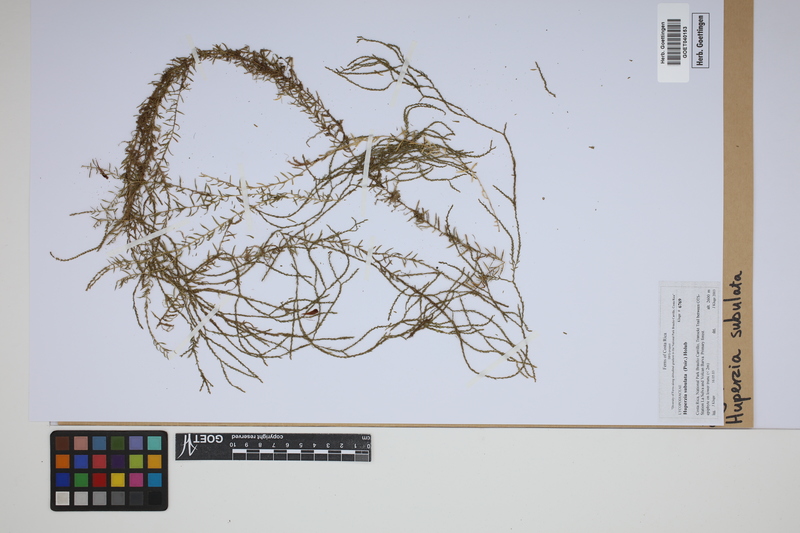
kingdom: Plantae
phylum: Tracheophyta
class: Lycopodiopsida
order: Lycopodiales
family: Lycopodiaceae
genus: Phlegmariurus
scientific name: Phlegmariurus subulatus
